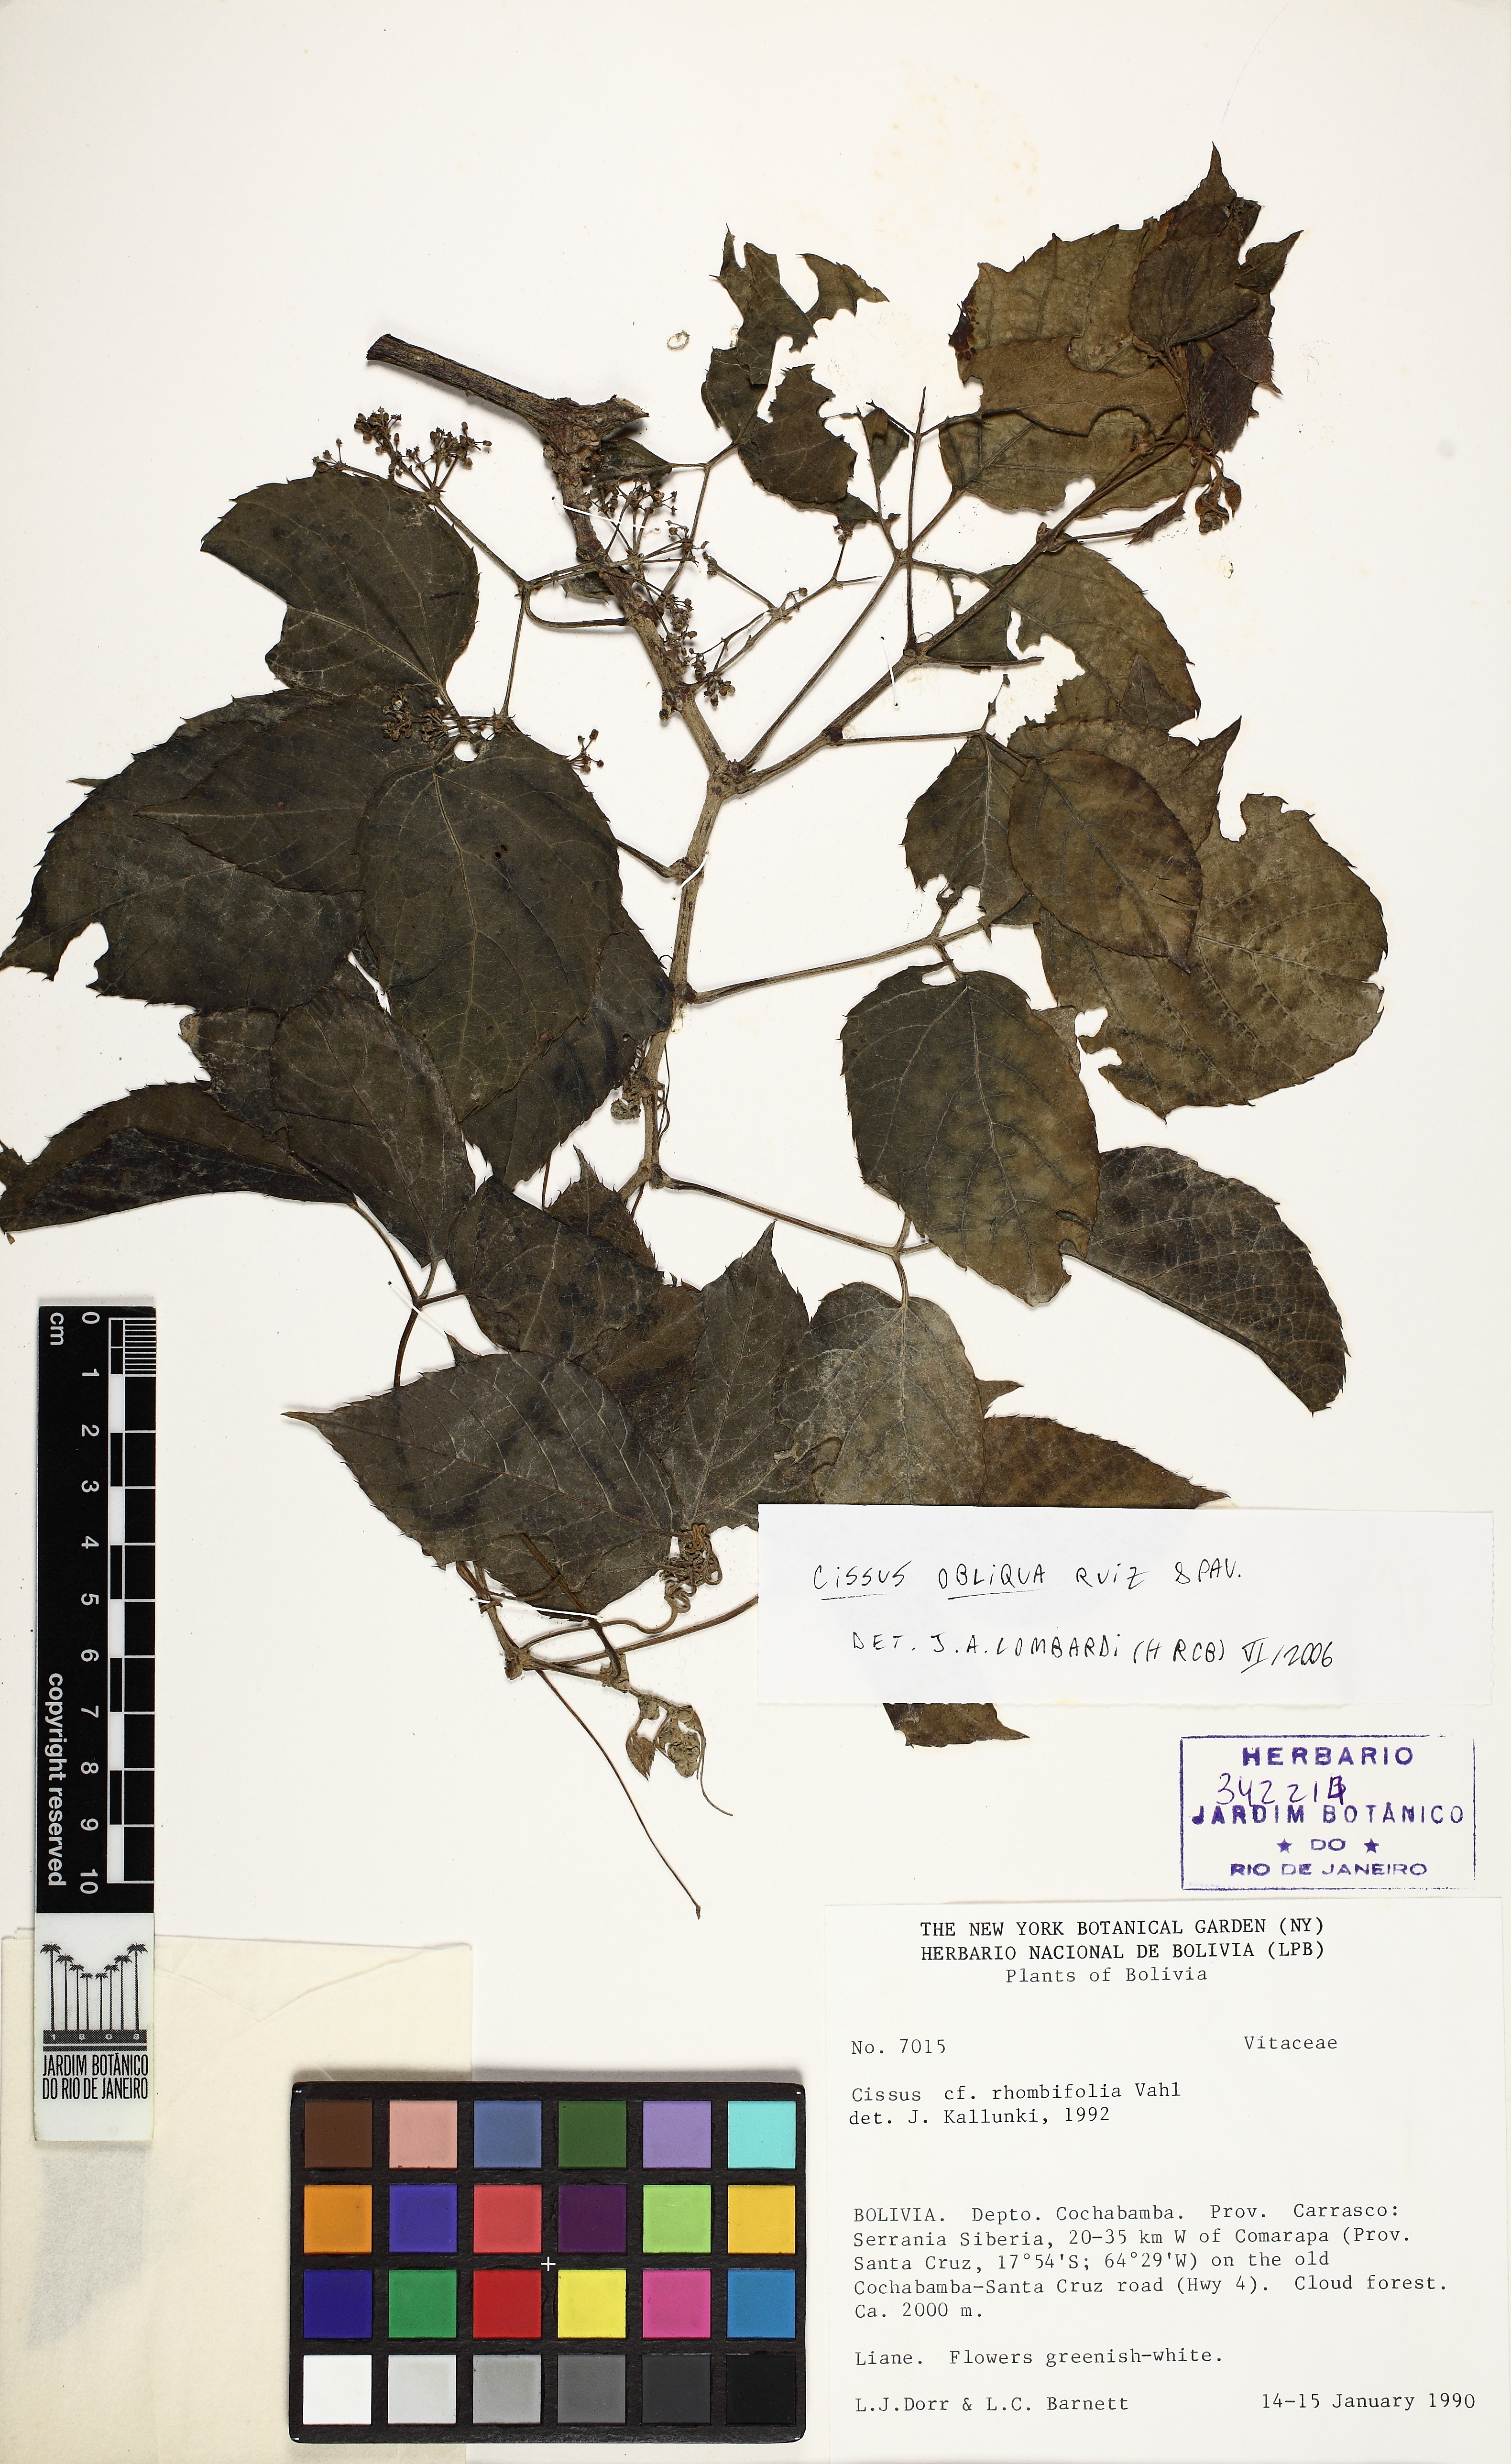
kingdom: Plantae
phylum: Tracheophyta
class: Magnoliopsida
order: Vitales
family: Vitaceae
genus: Cissus
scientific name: Cissus obliqua
